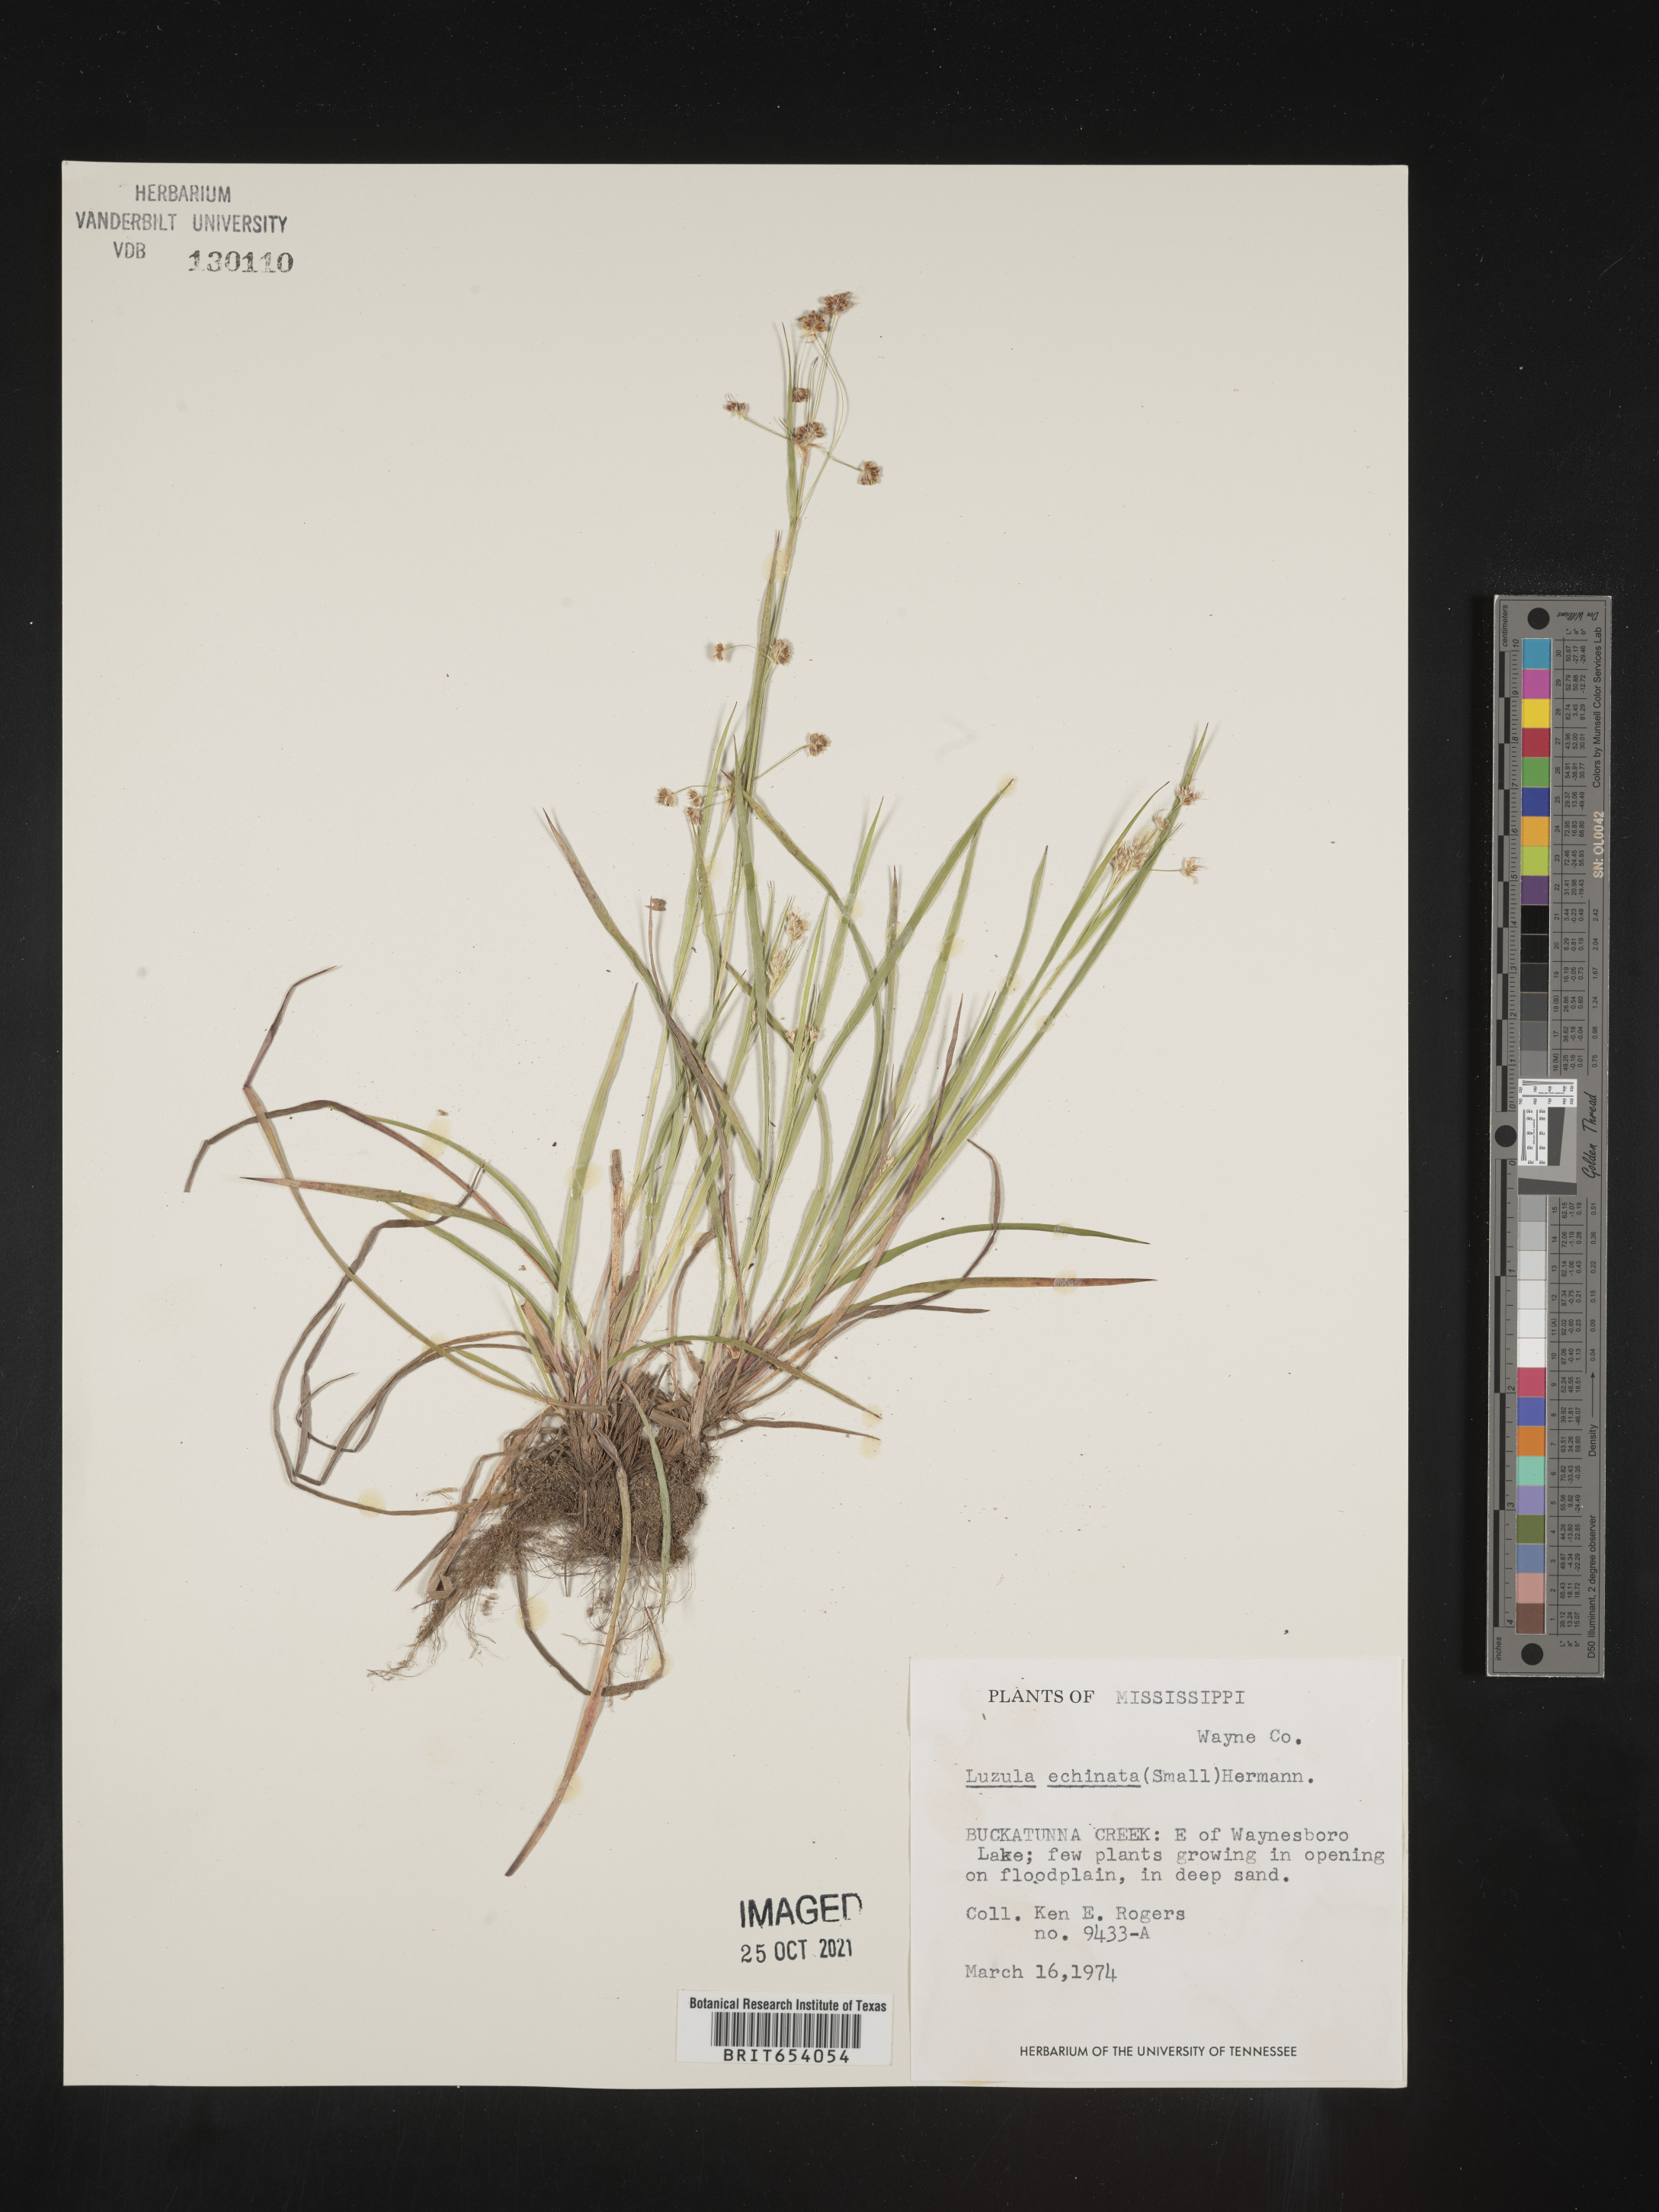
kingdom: Plantae
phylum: Tracheophyta
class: Liliopsida
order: Poales
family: Juncaceae
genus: Luzula
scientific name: Luzula echinata
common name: Hedgehog woodrush
